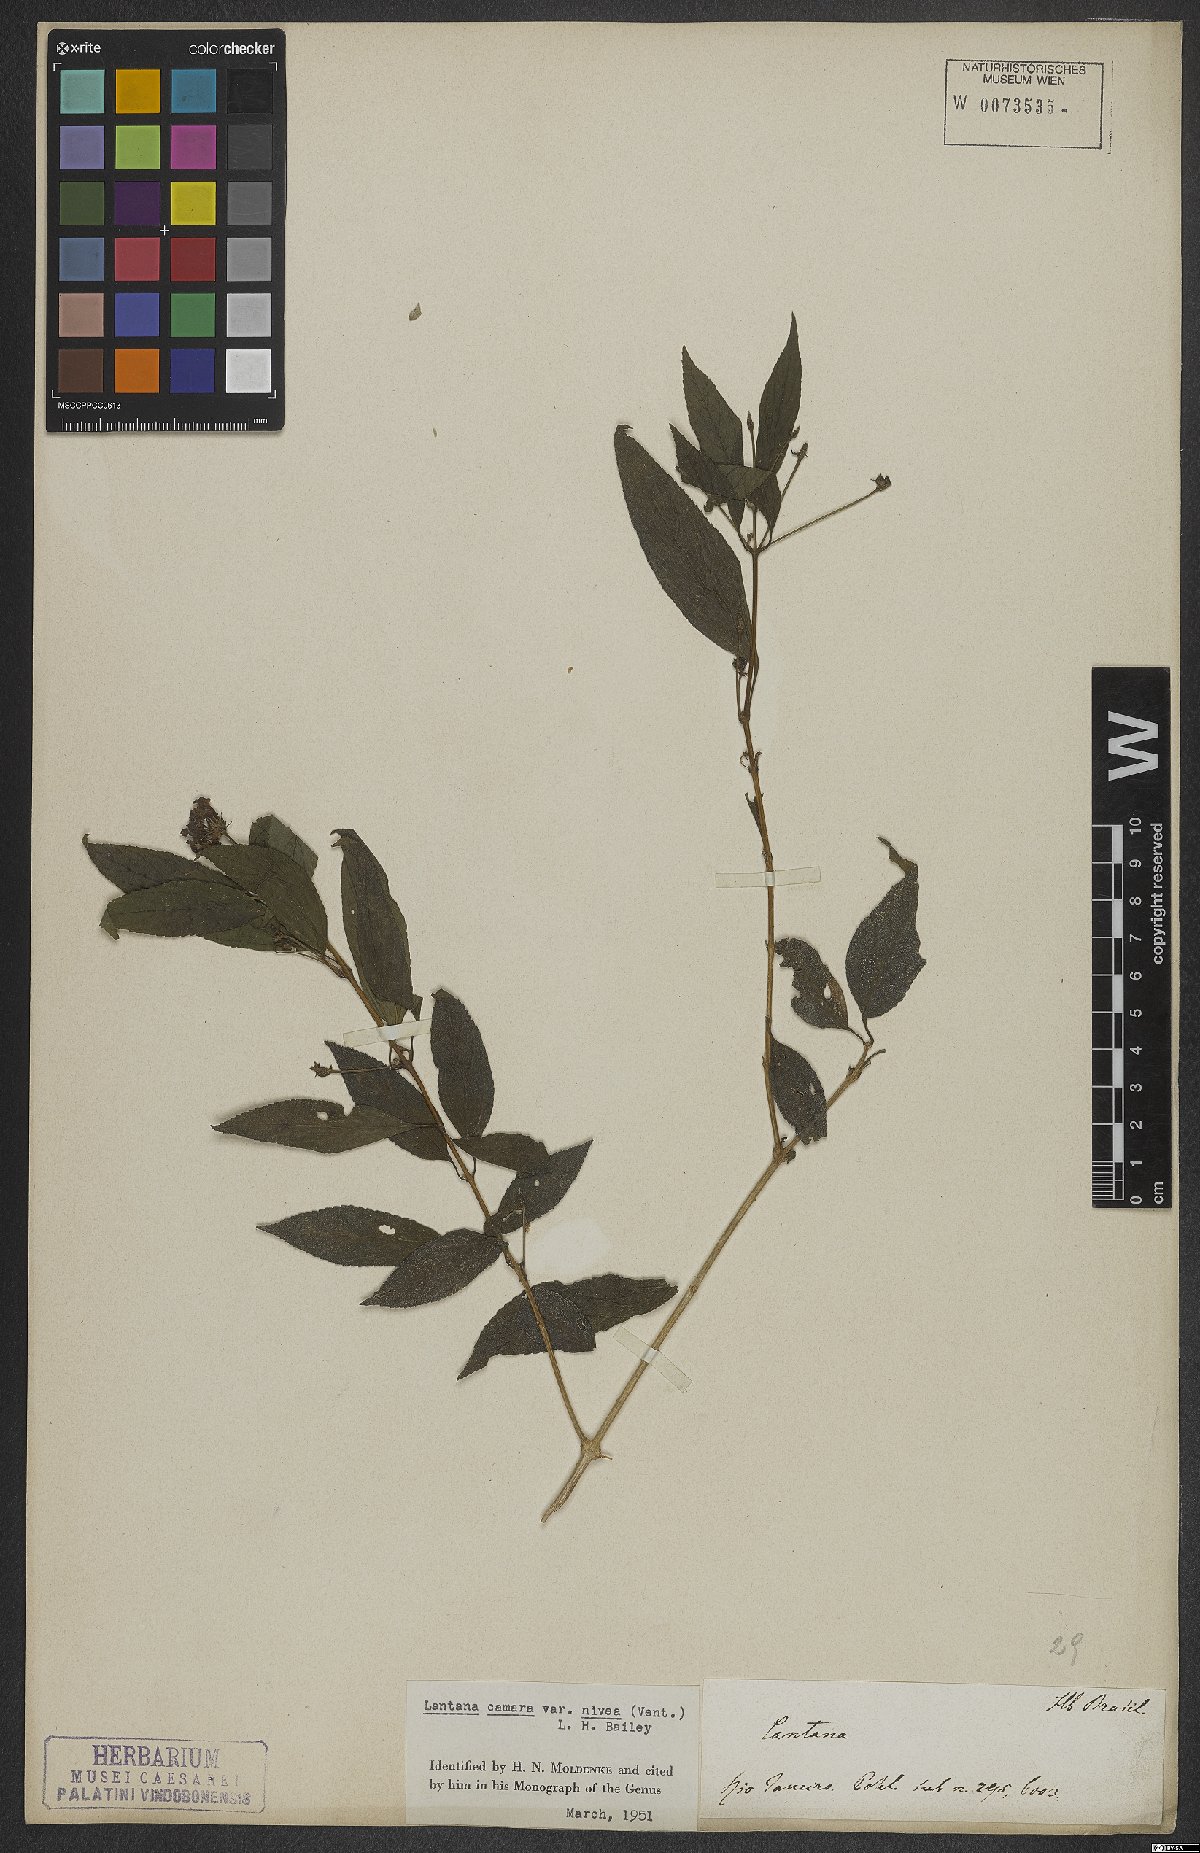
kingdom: Plantae
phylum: Tracheophyta
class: Magnoliopsida
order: Lamiales
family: Verbenaceae
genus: Lantana
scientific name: Lantana camara
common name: Lantana
